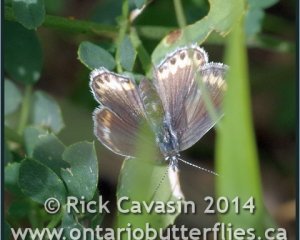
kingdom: Animalia
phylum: Arthropoda
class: Insecta
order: Lepidoptera
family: Lycaenidae
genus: Lycaeides
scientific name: Lycaeides melissa
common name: Melissa Blue
